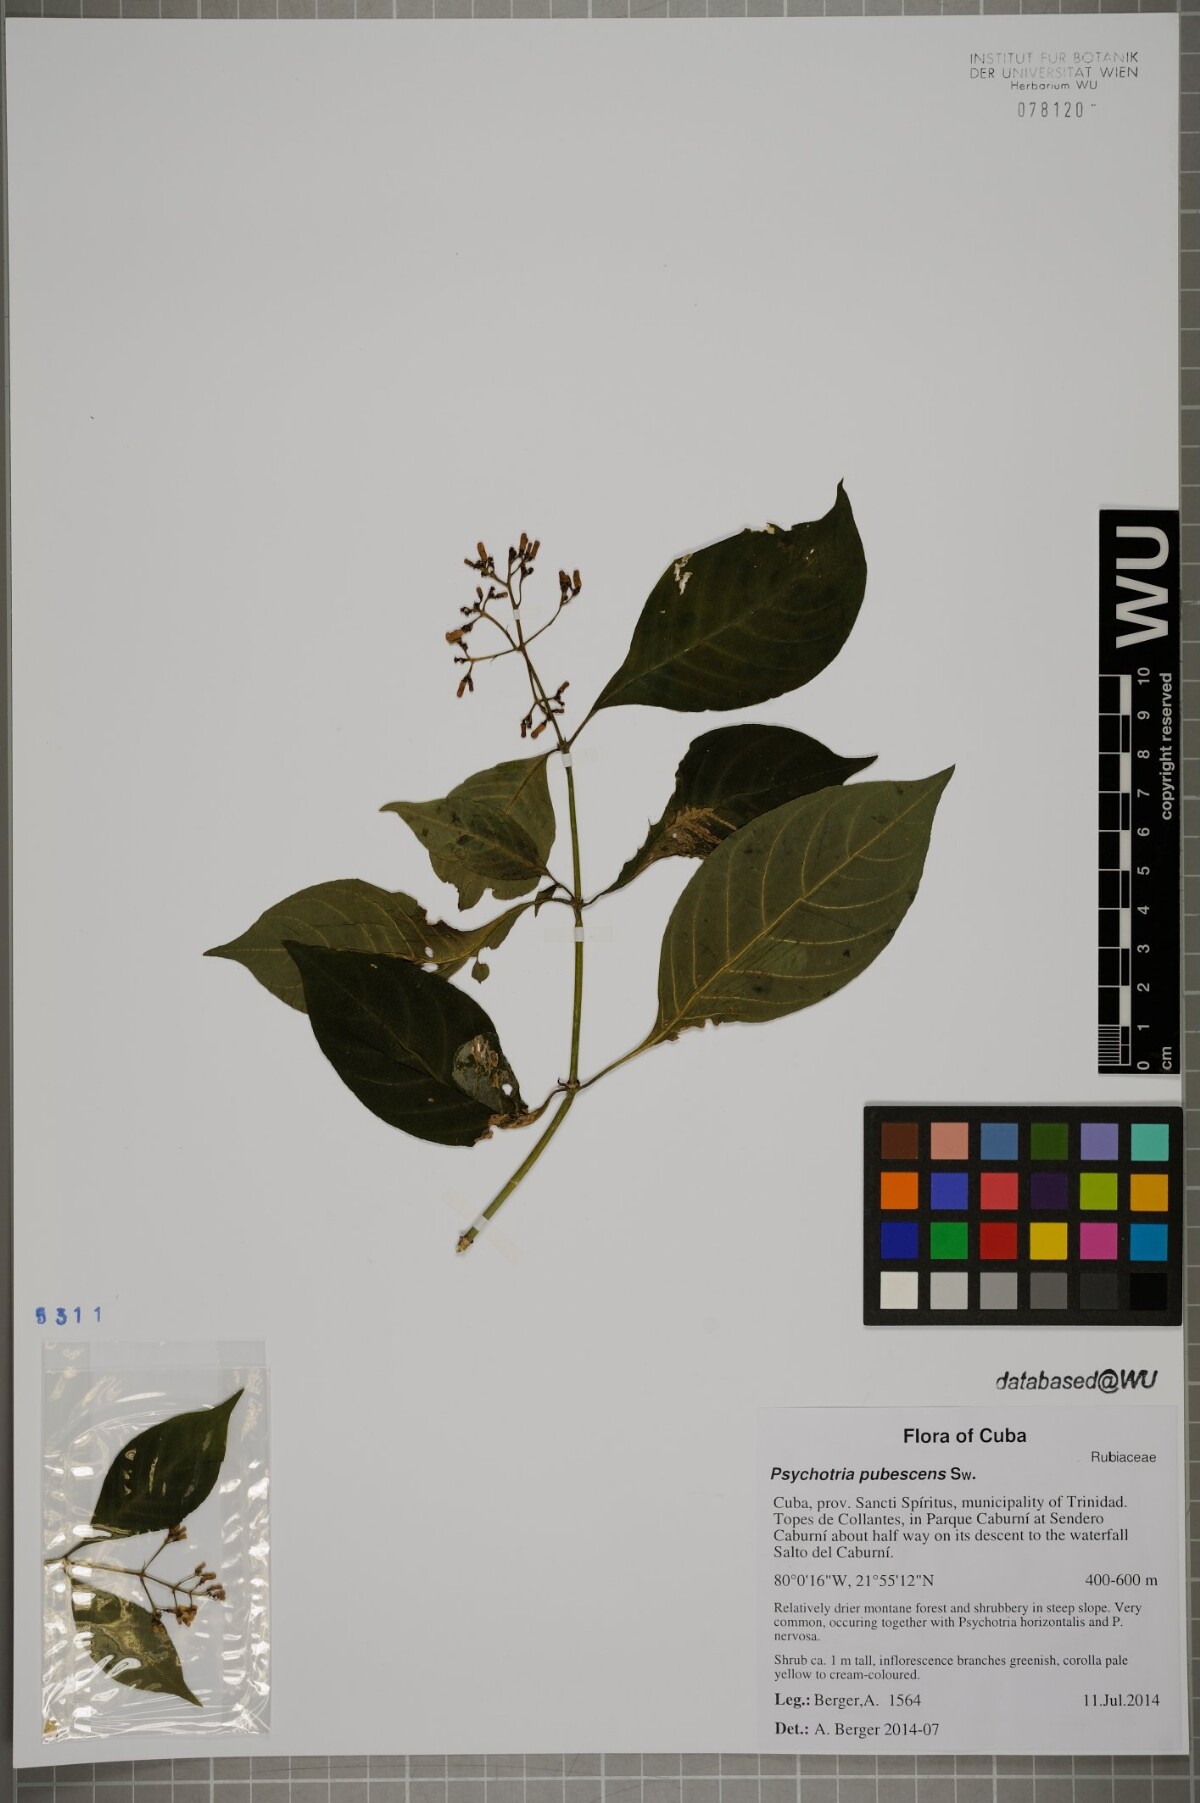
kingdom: Plantae
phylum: Tracheophyta
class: Magnoliopsida
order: Gentianales
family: Rubiaceae
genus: Palicourea
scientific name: Palicourea pubescens
